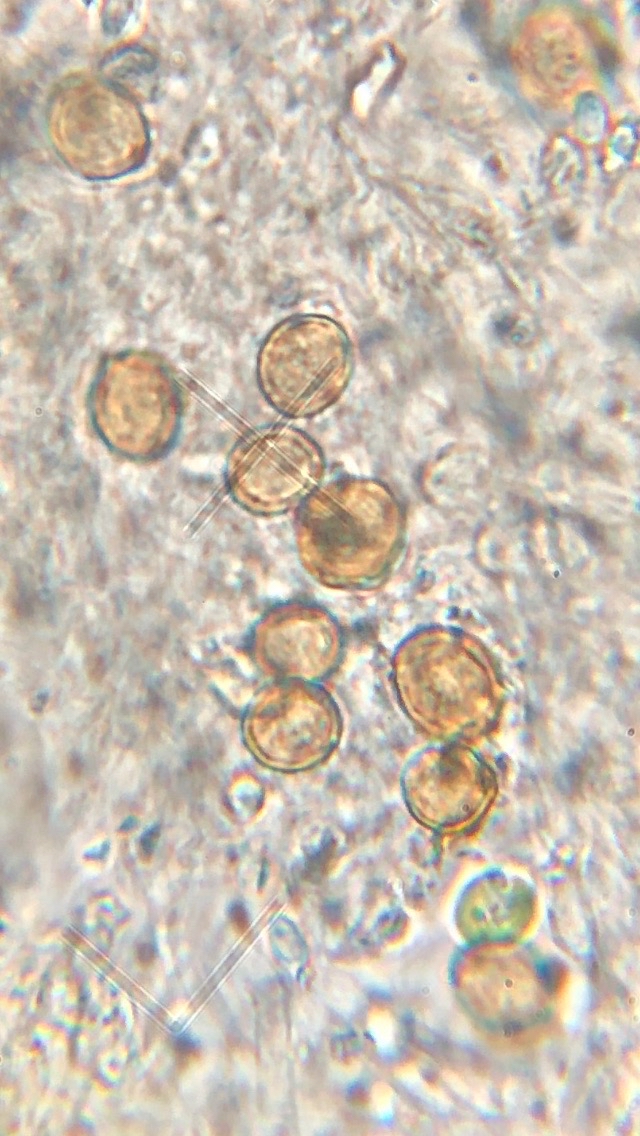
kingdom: Fungi
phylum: Basidiomycota
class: Agaricomycetes
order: Agaricales
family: Chromocyphellaceae
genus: Chromocyphella
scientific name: Chromocyphella muscicola
